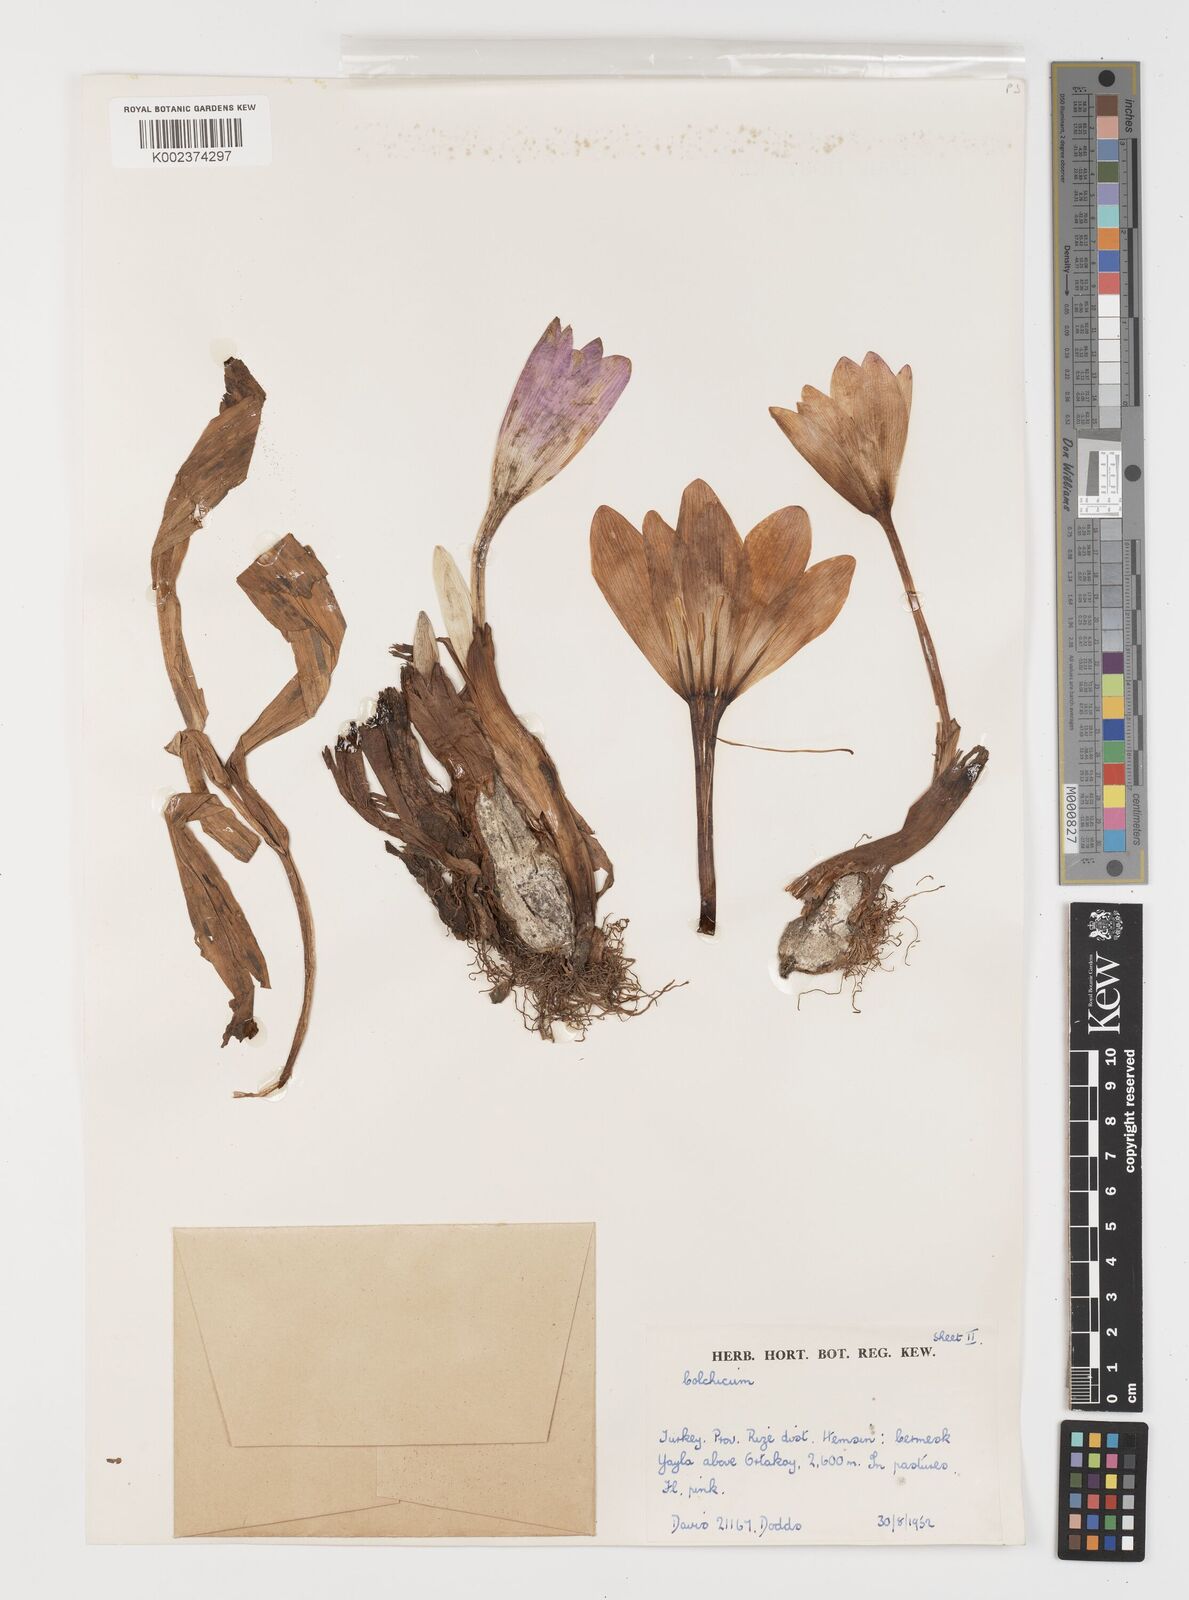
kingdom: Plantae
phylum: Tracheophyta
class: Liliopsida
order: Liliales
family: Colchicaceae
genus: Colchicum
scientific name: Colchicum
